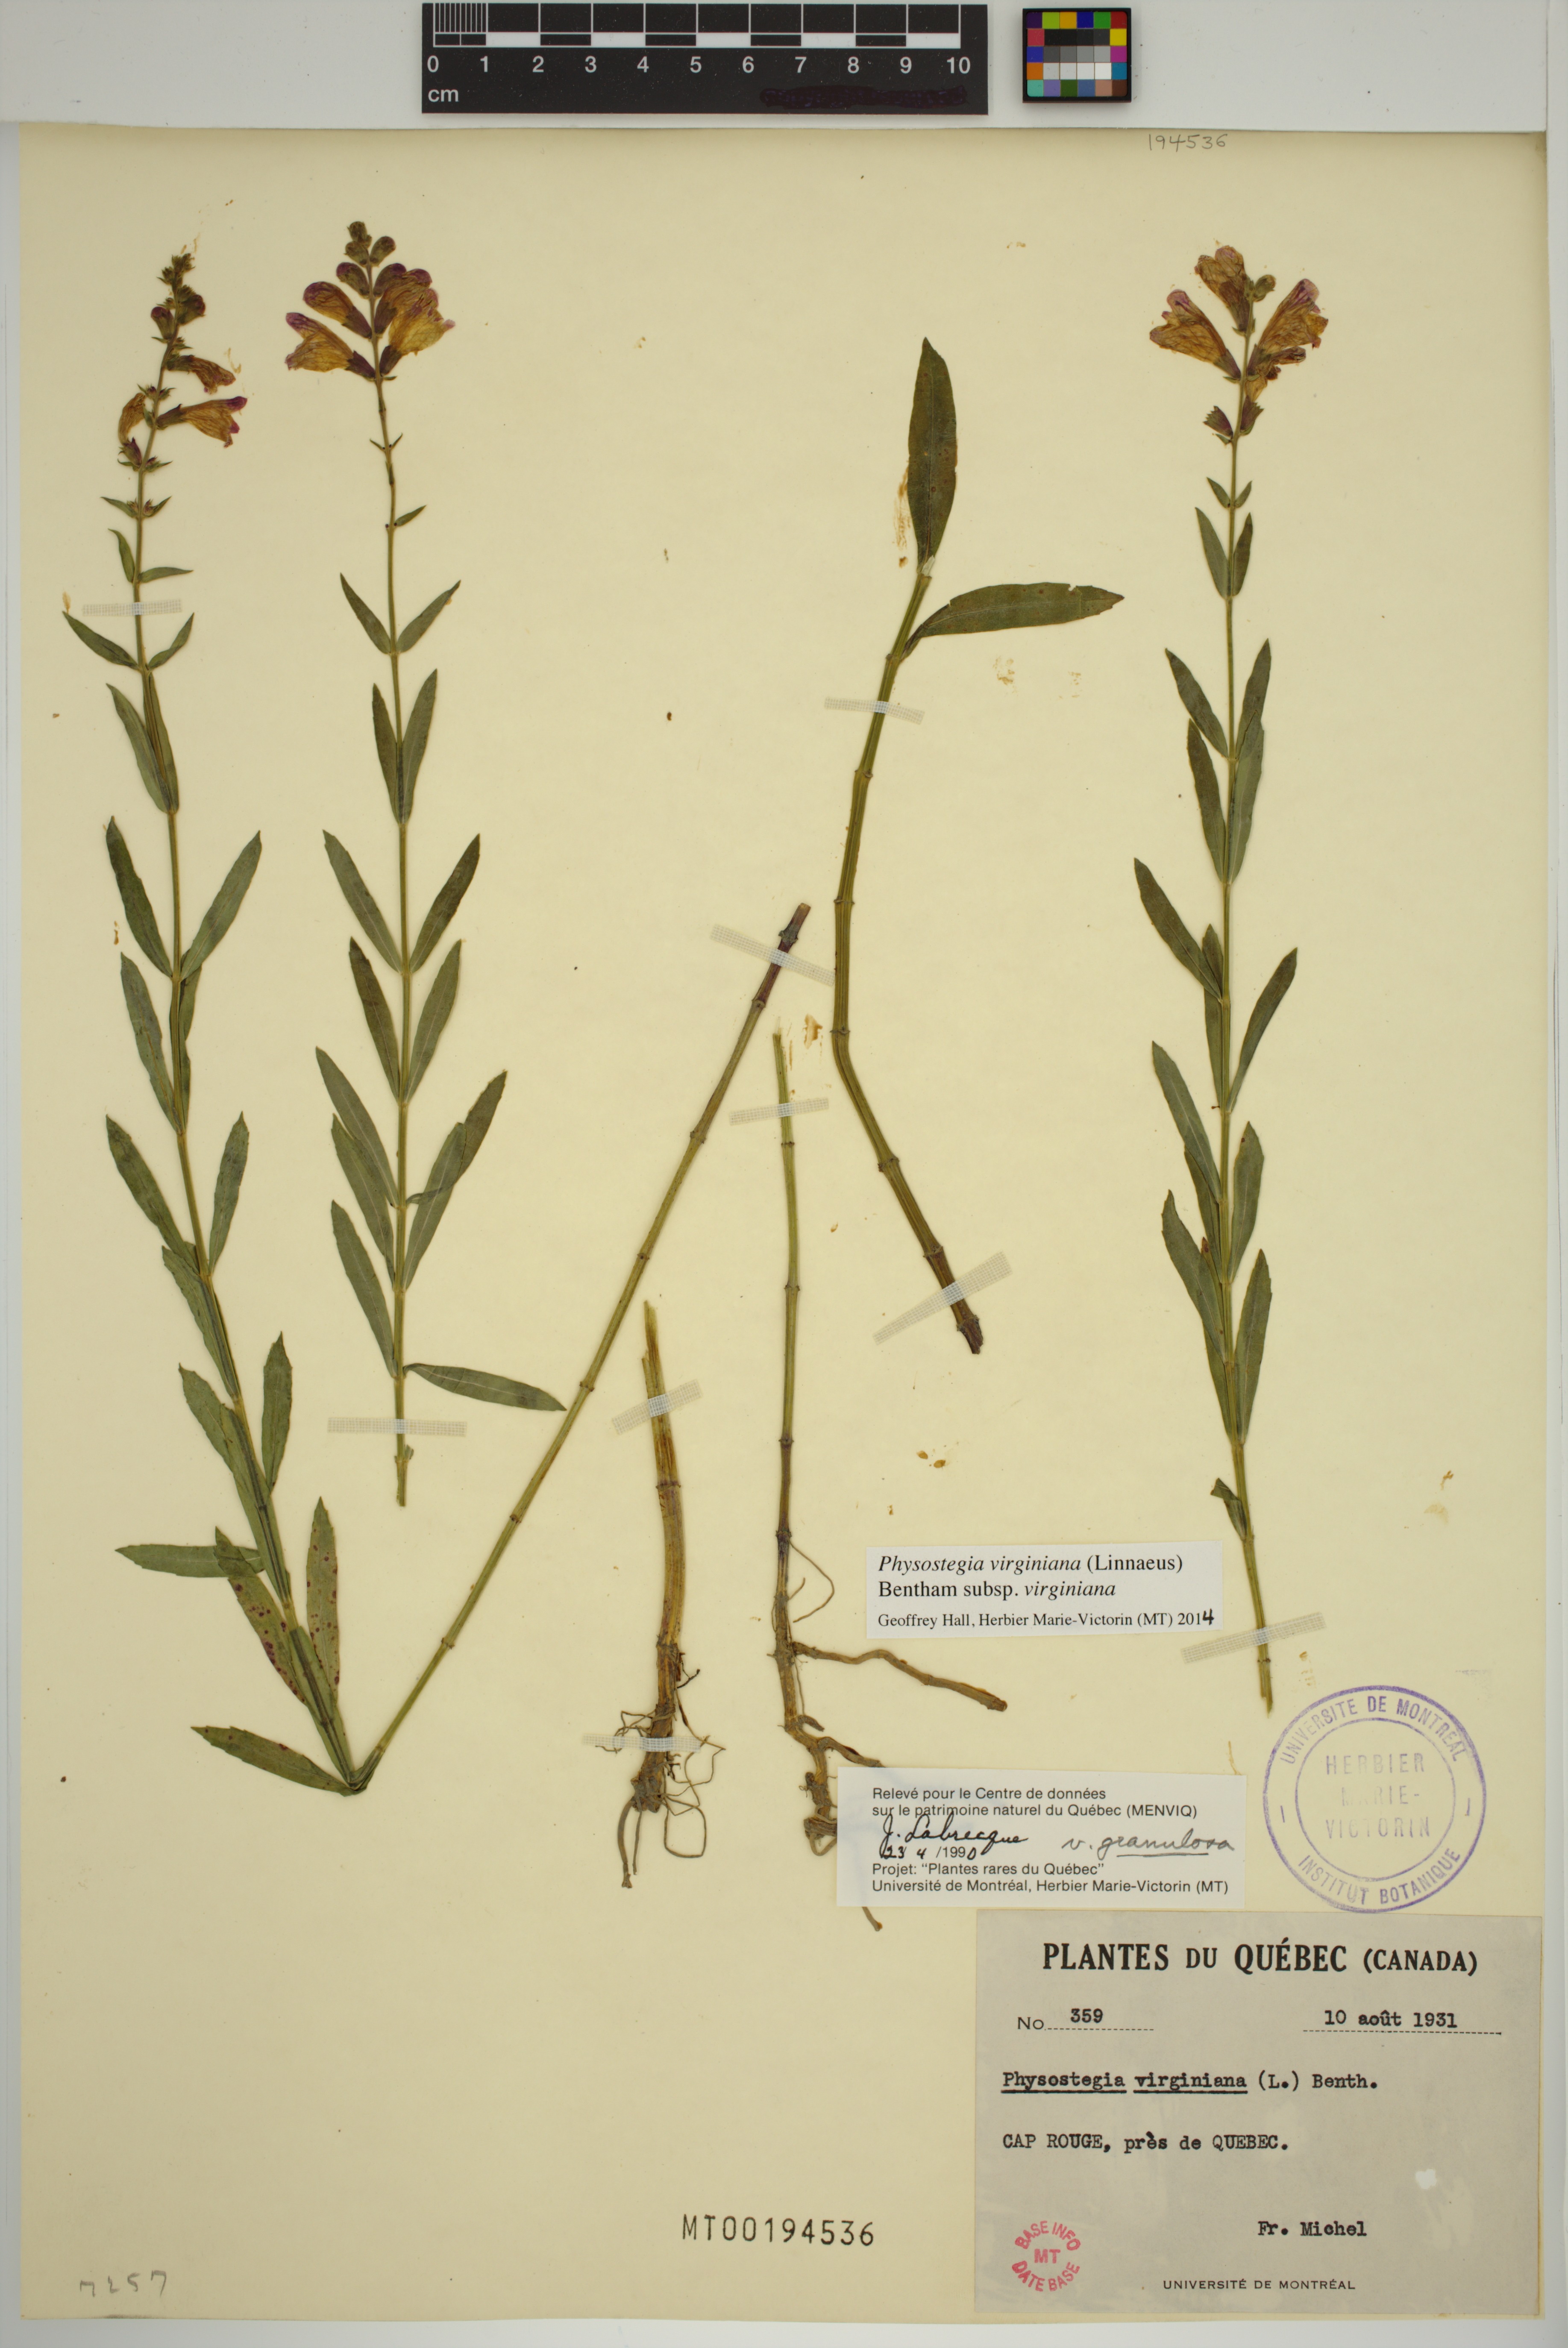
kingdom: Plantae
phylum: Tracheophyta
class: Magnoliopsida
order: Lamiales
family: Lamiaceae
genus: Physostegia
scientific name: Physostegia virginiana
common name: Obedient-plant
